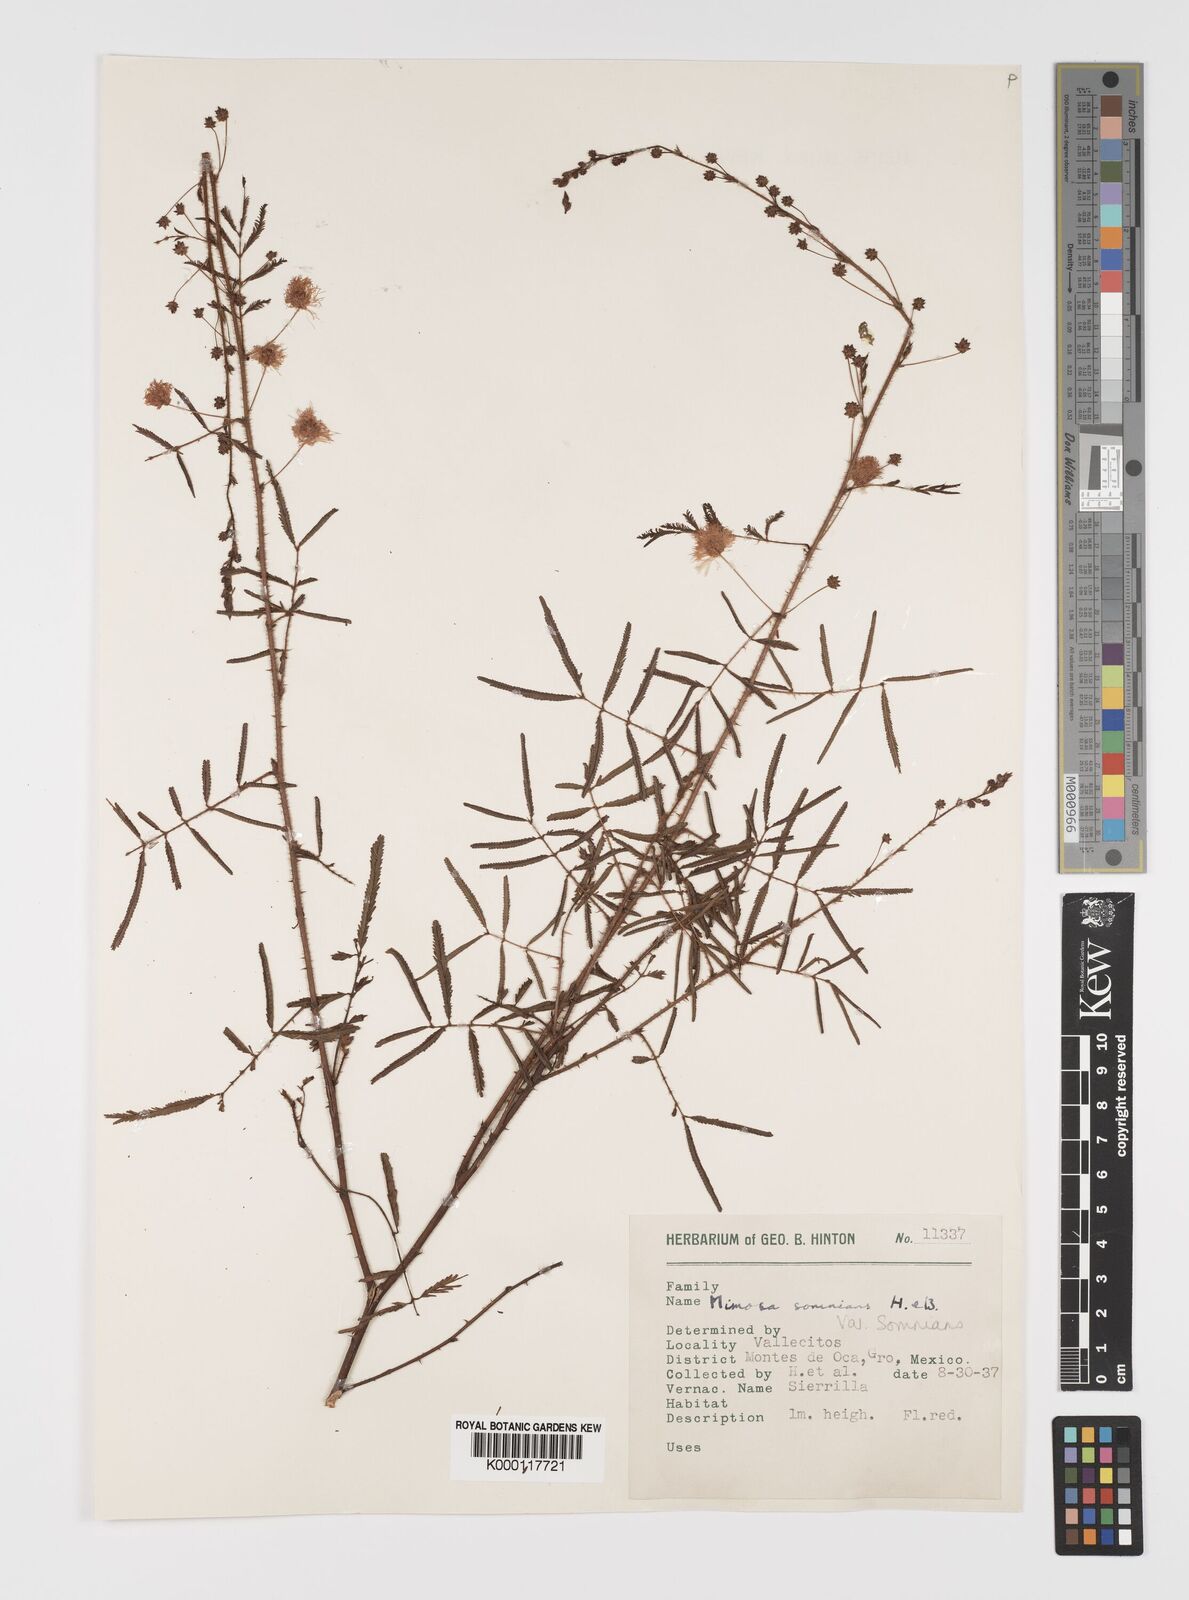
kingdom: Plantae
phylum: Tracheophyta
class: Magnoliopsida
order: Fabales
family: Fabaceae
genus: Mimosa
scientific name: Mimosa somnians
